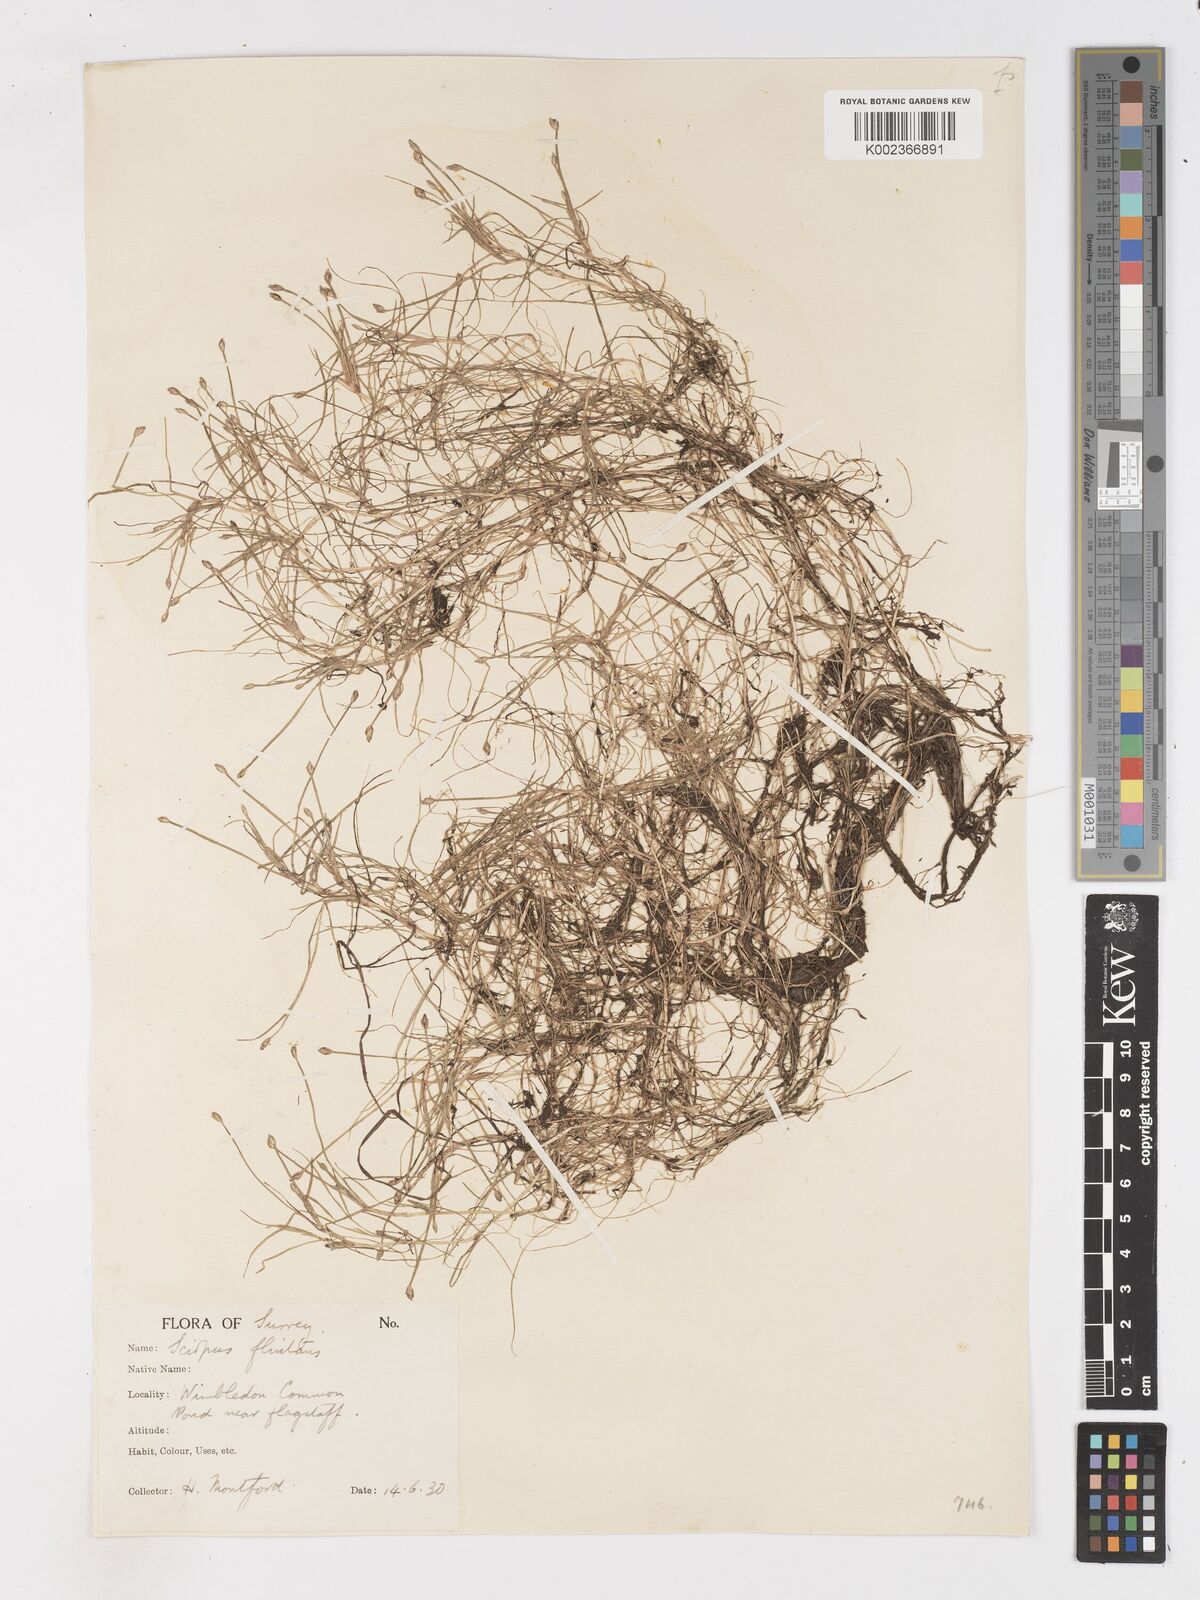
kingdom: Plantae
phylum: Tracheophyta
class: Liliopsida
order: Poales
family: Cyperaceae
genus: Isolepis
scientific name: Isolepis fluitans
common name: Floating club-rush
